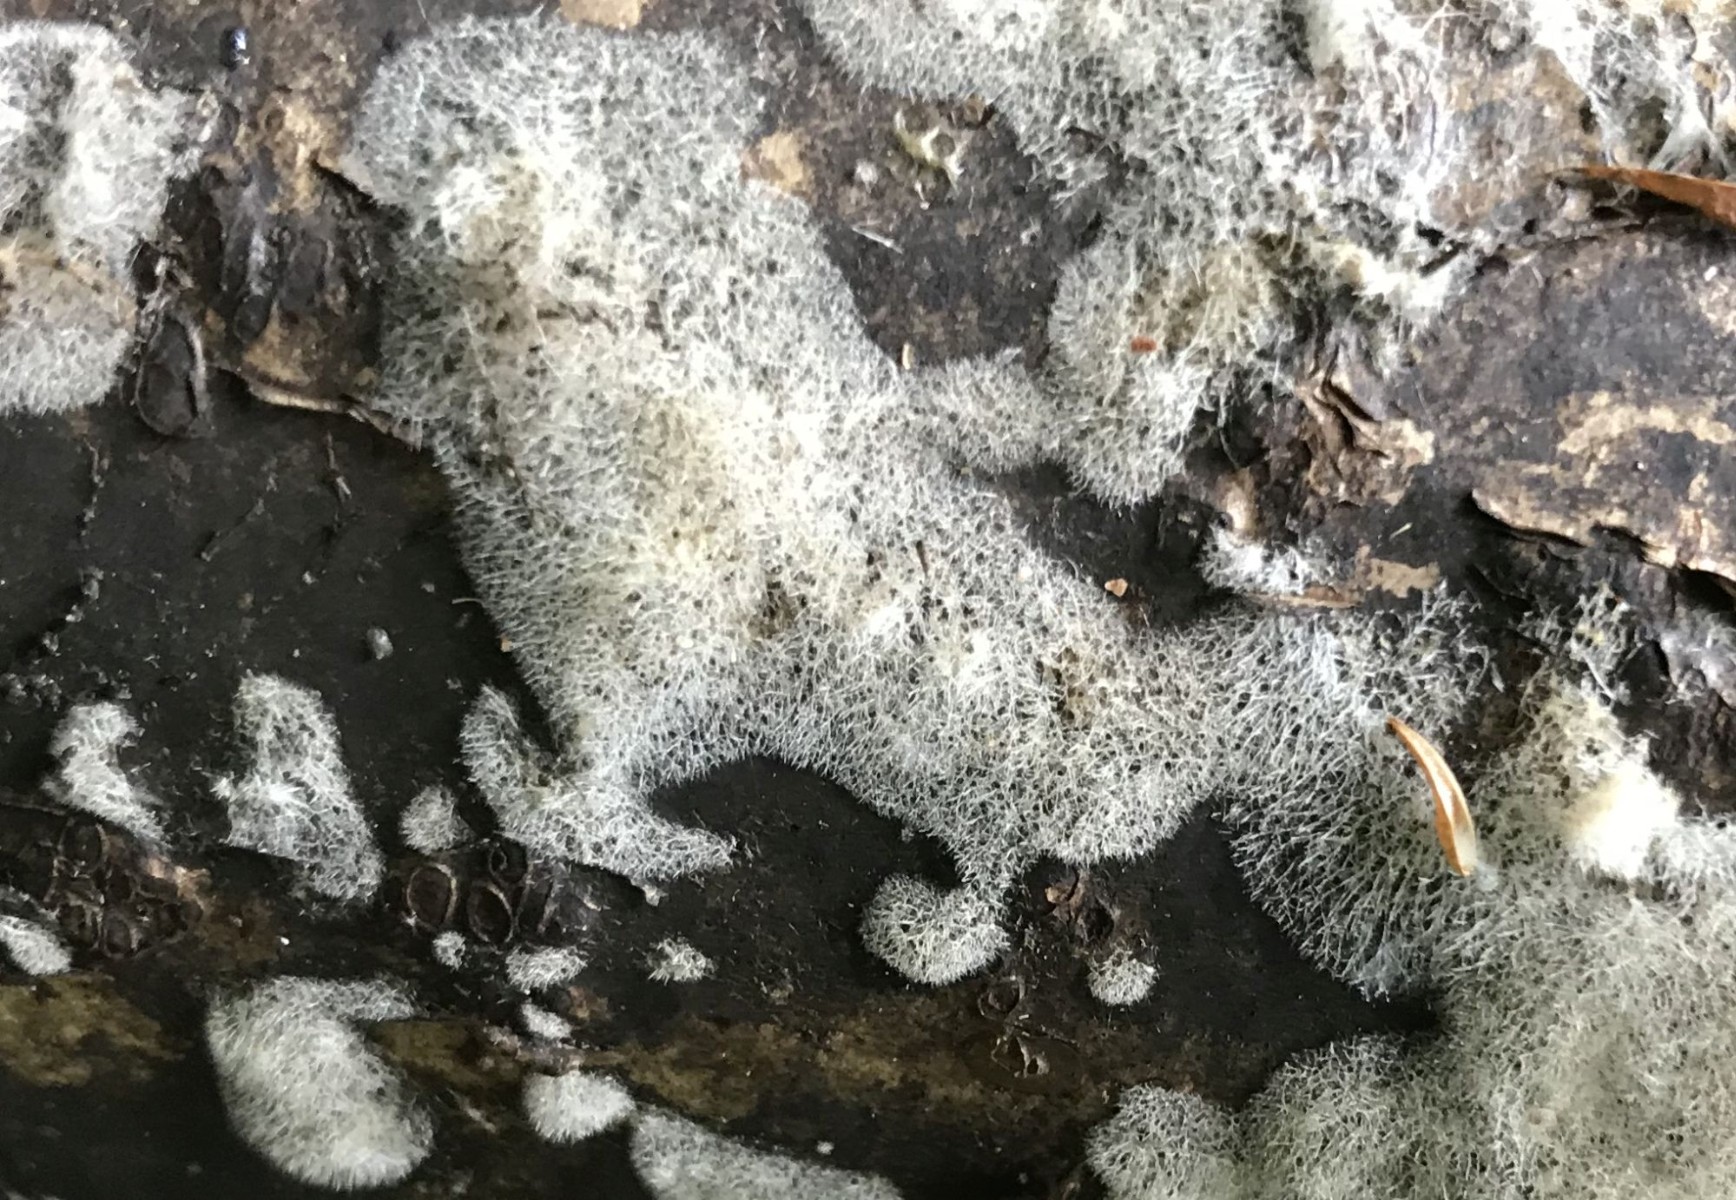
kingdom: Fungi
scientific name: Fungi
